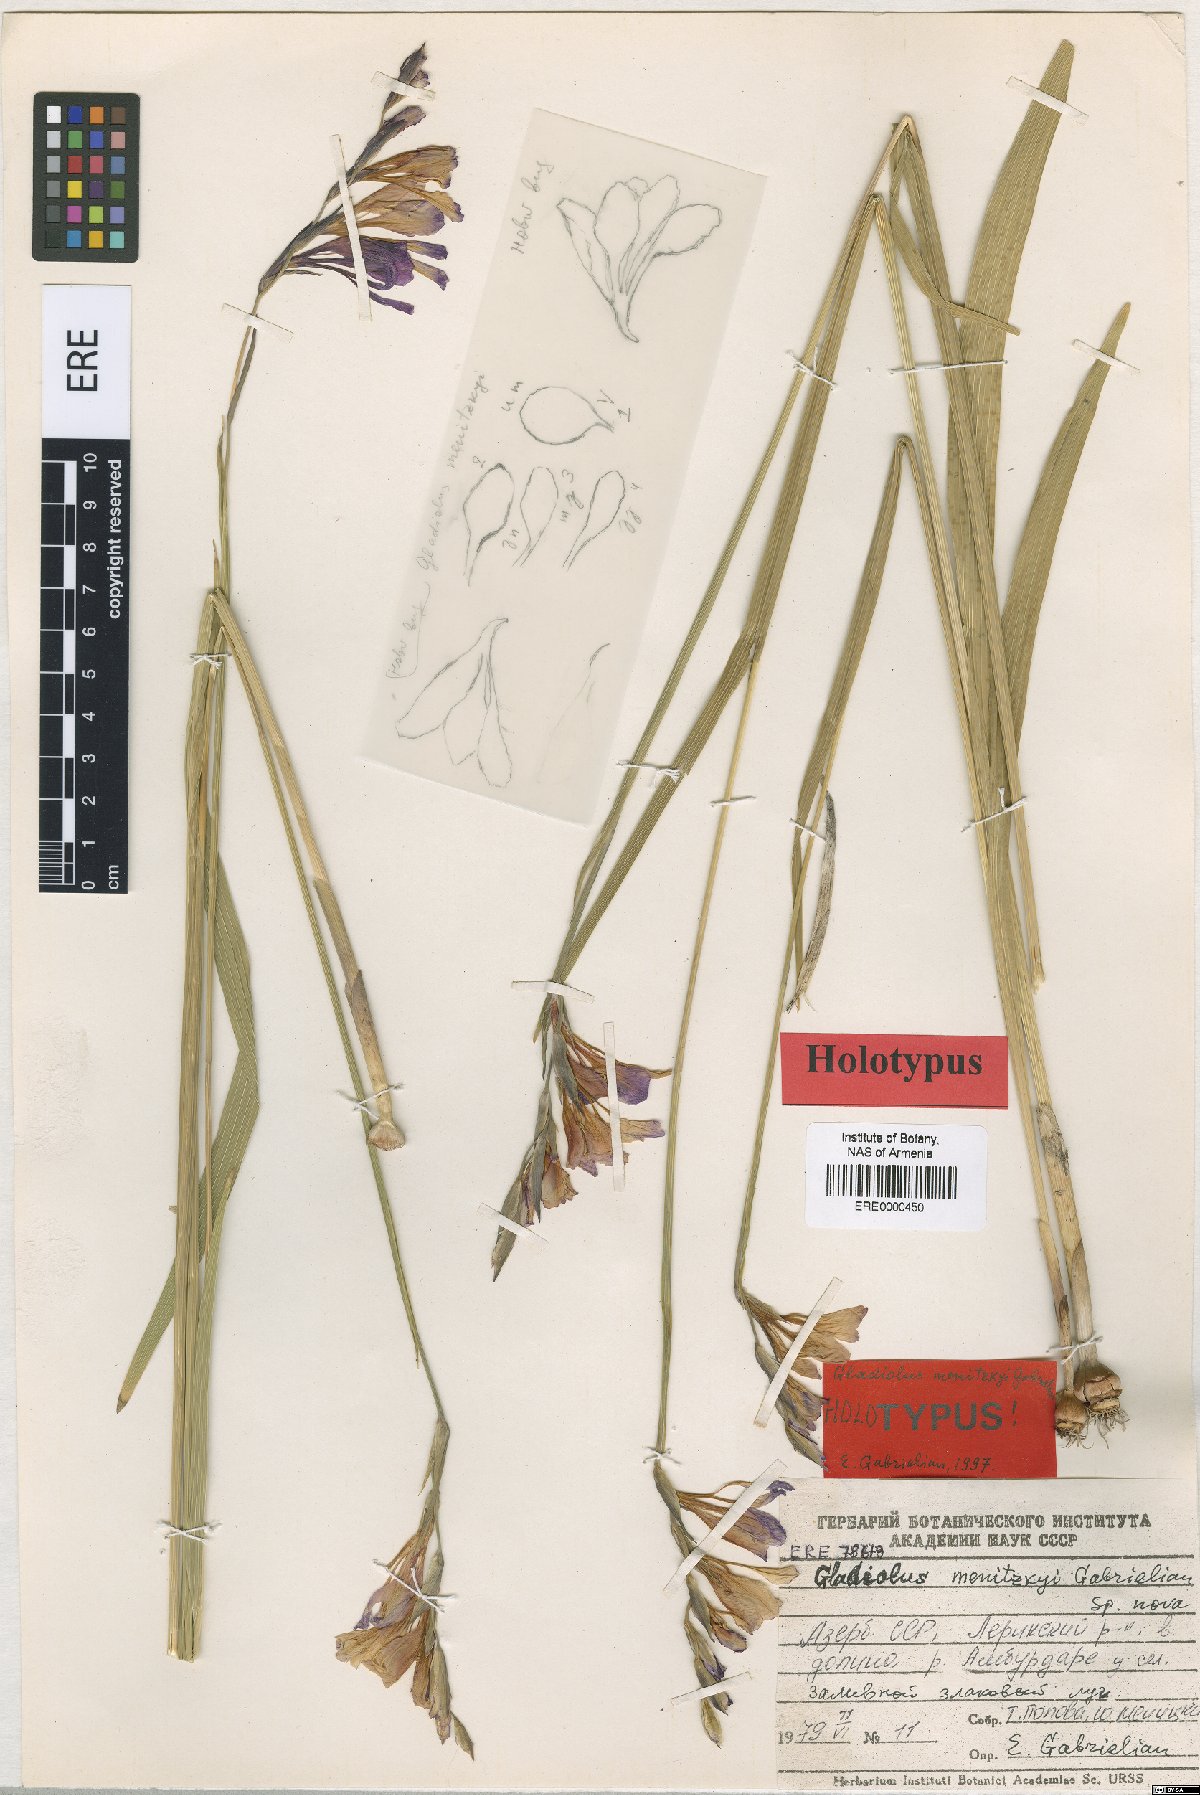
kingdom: Plantae
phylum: Tracheophyta
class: Liliopsida
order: Asparagales
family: Iridaceae
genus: Gladiolus
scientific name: Gladiolus menitskyi
